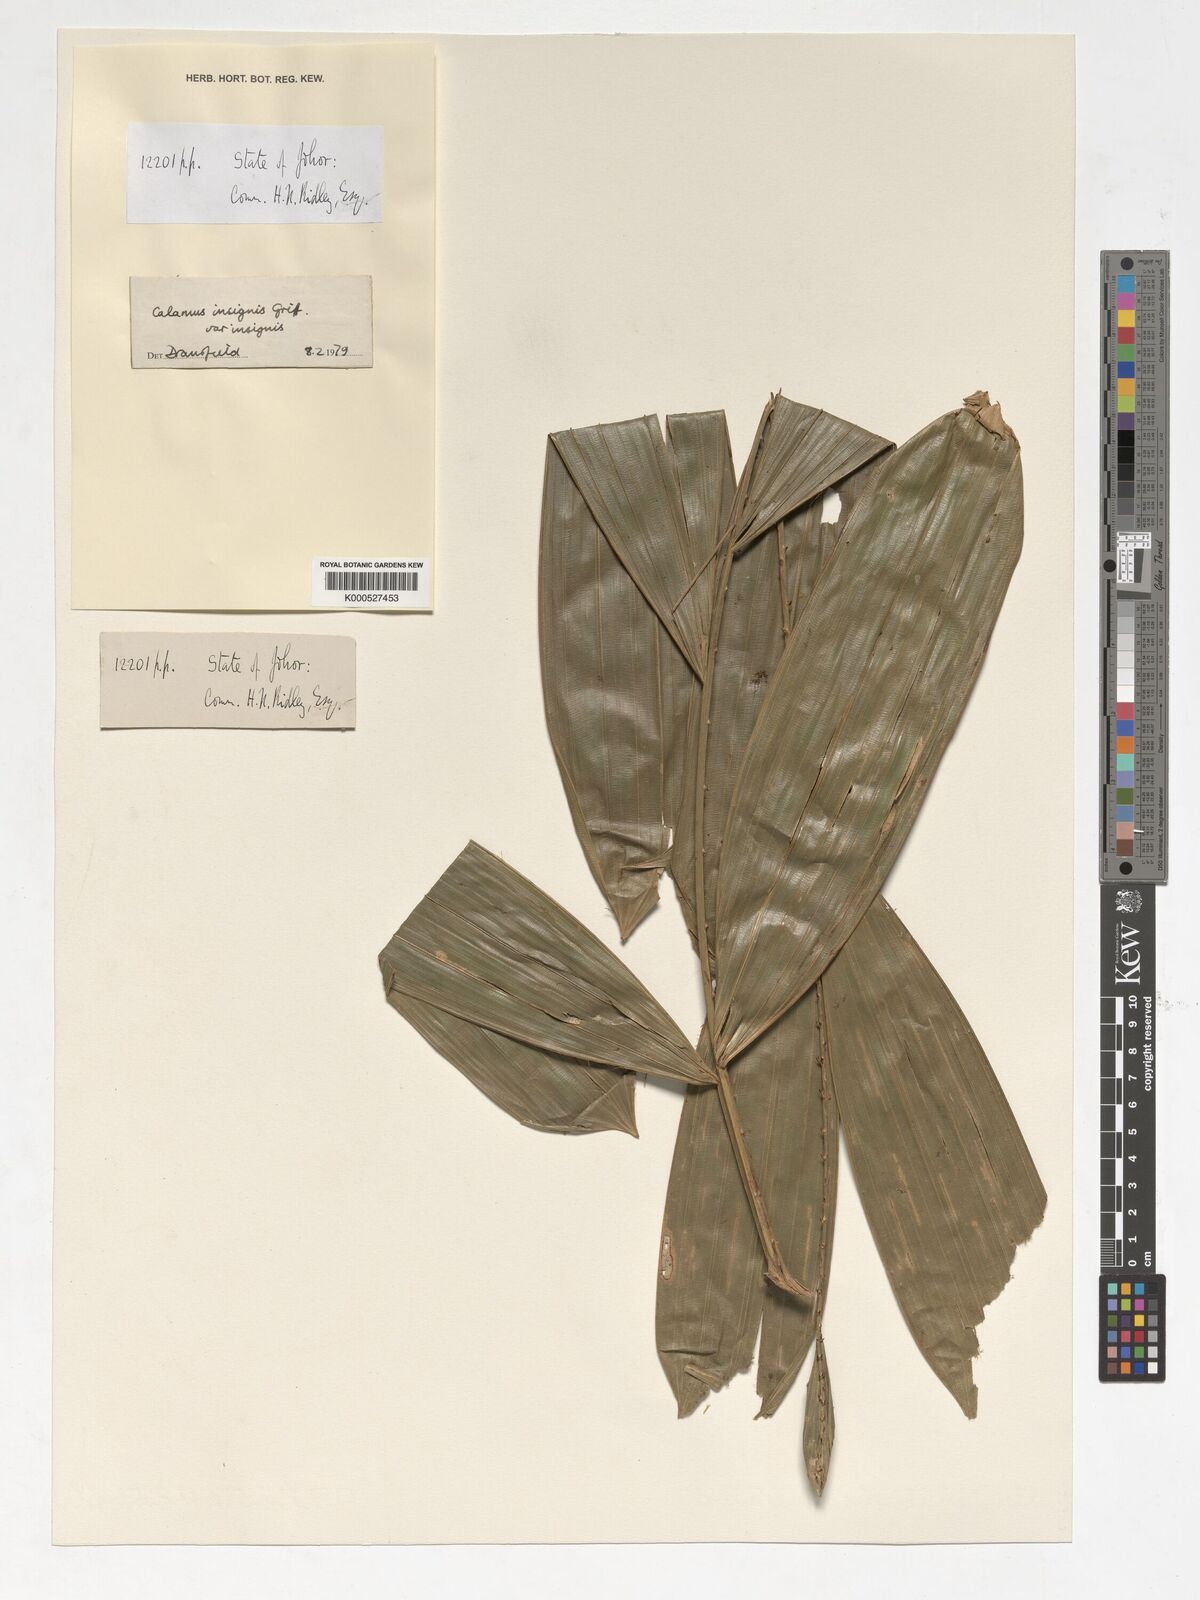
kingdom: Plantae
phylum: Tracheophyta
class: Liliopsida
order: Arecales
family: Arecaceae
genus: Calamus
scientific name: Calamus insignis
